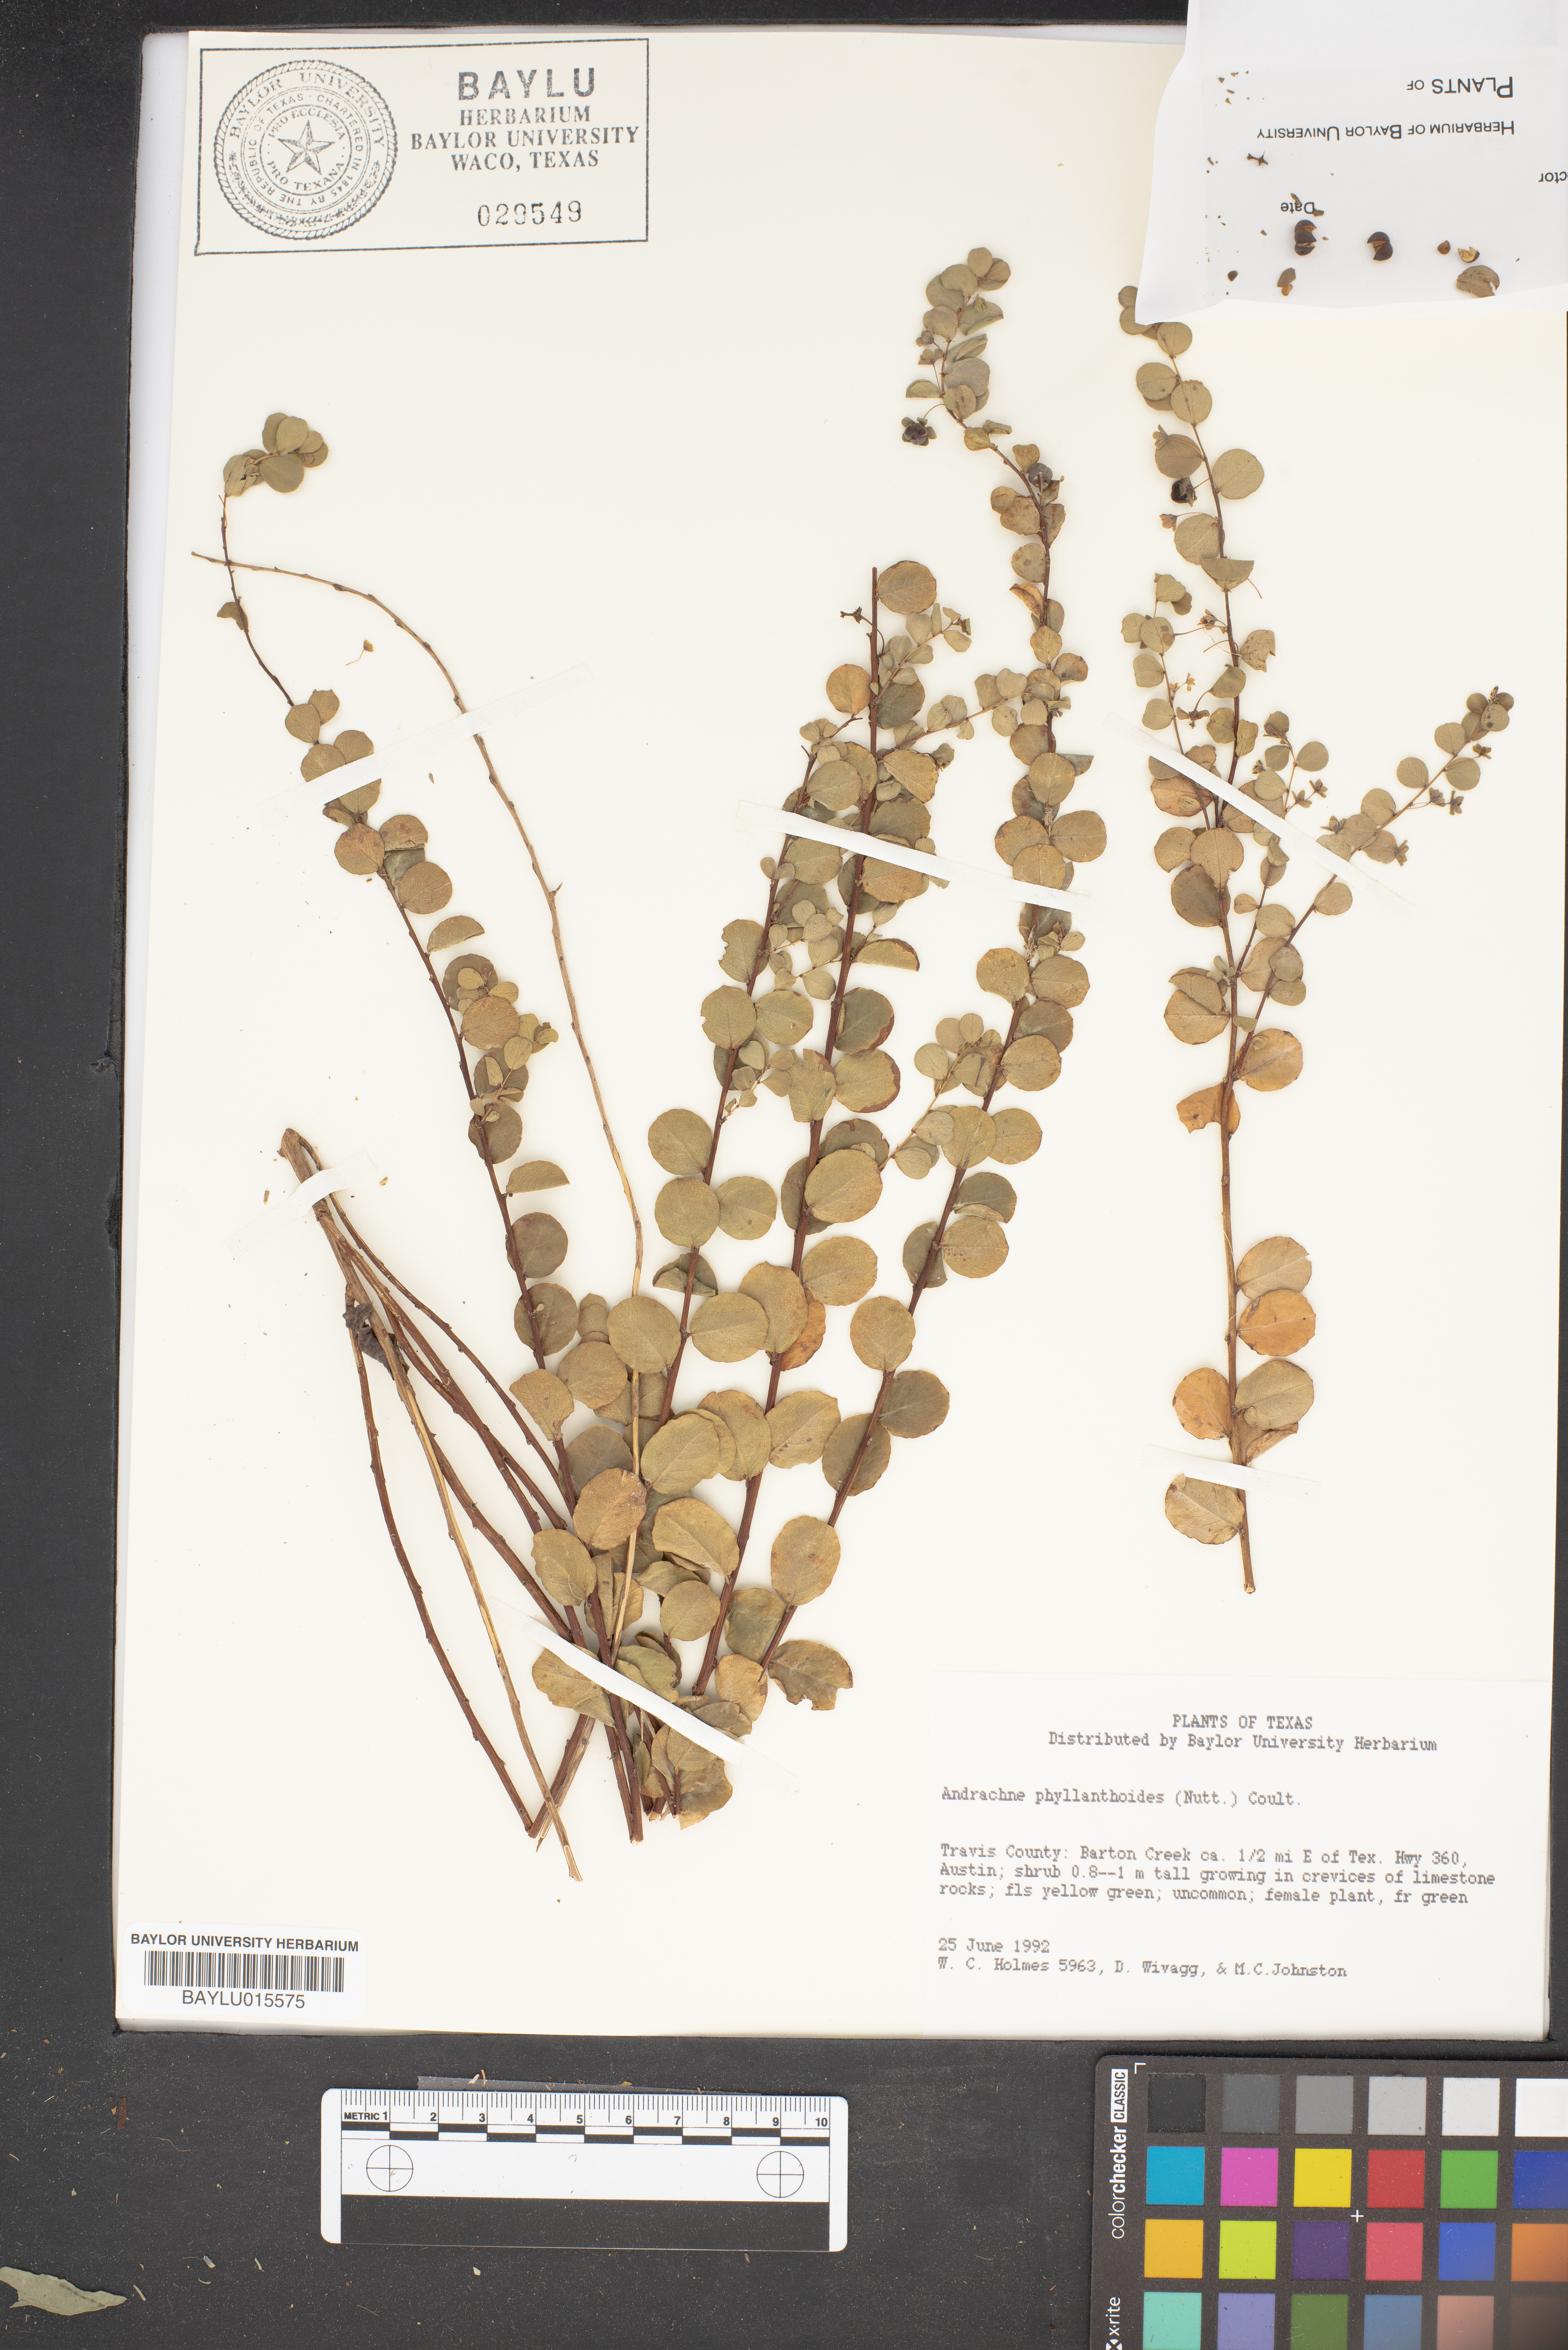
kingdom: Plantae
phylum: Tracheophyta
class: Magnoliopsida
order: Malpighiales
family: Phyllanthaceae
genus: Phyllanthopsis
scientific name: Phyllanthopsis phyllanthoides
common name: Missouri maidenbush
